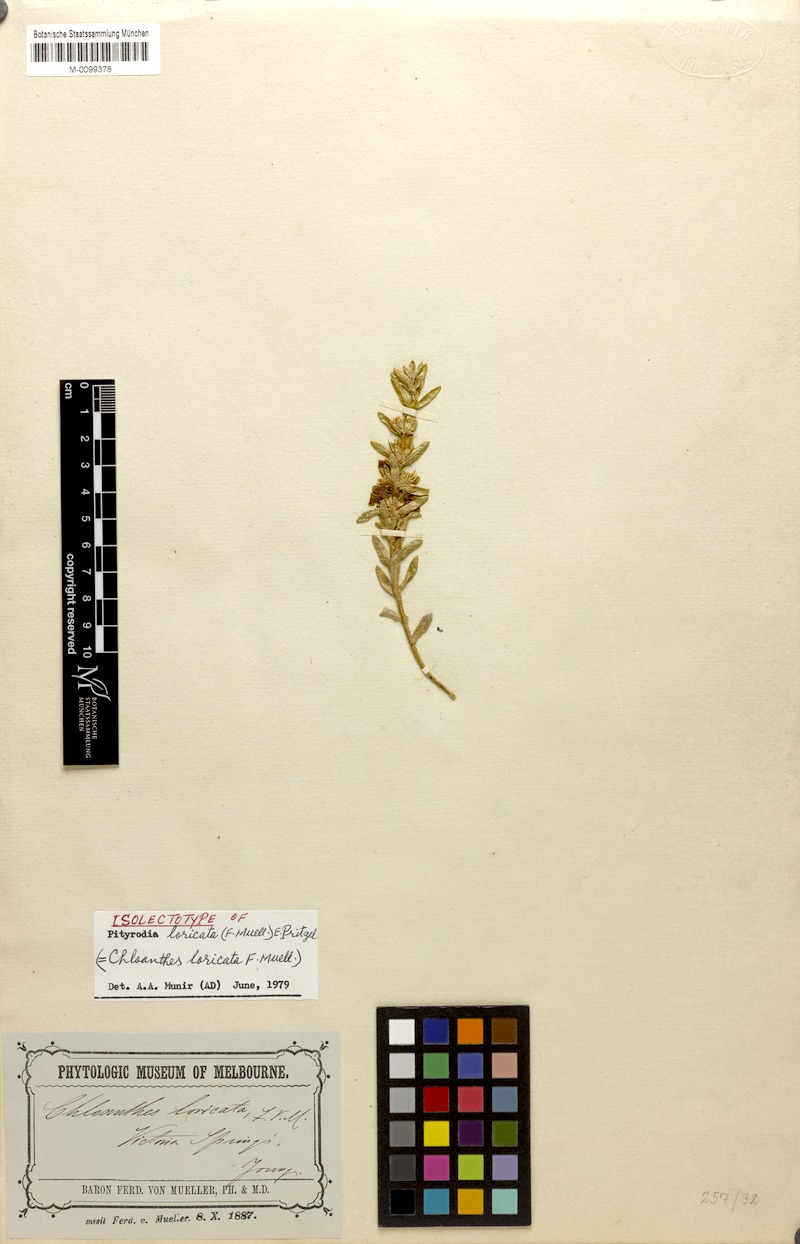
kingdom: Plantae
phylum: Tracheophyta
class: Magnoliopsida
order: Lamiales
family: Lamiaceae
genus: Pityrodia
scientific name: Pityrodia loricata
